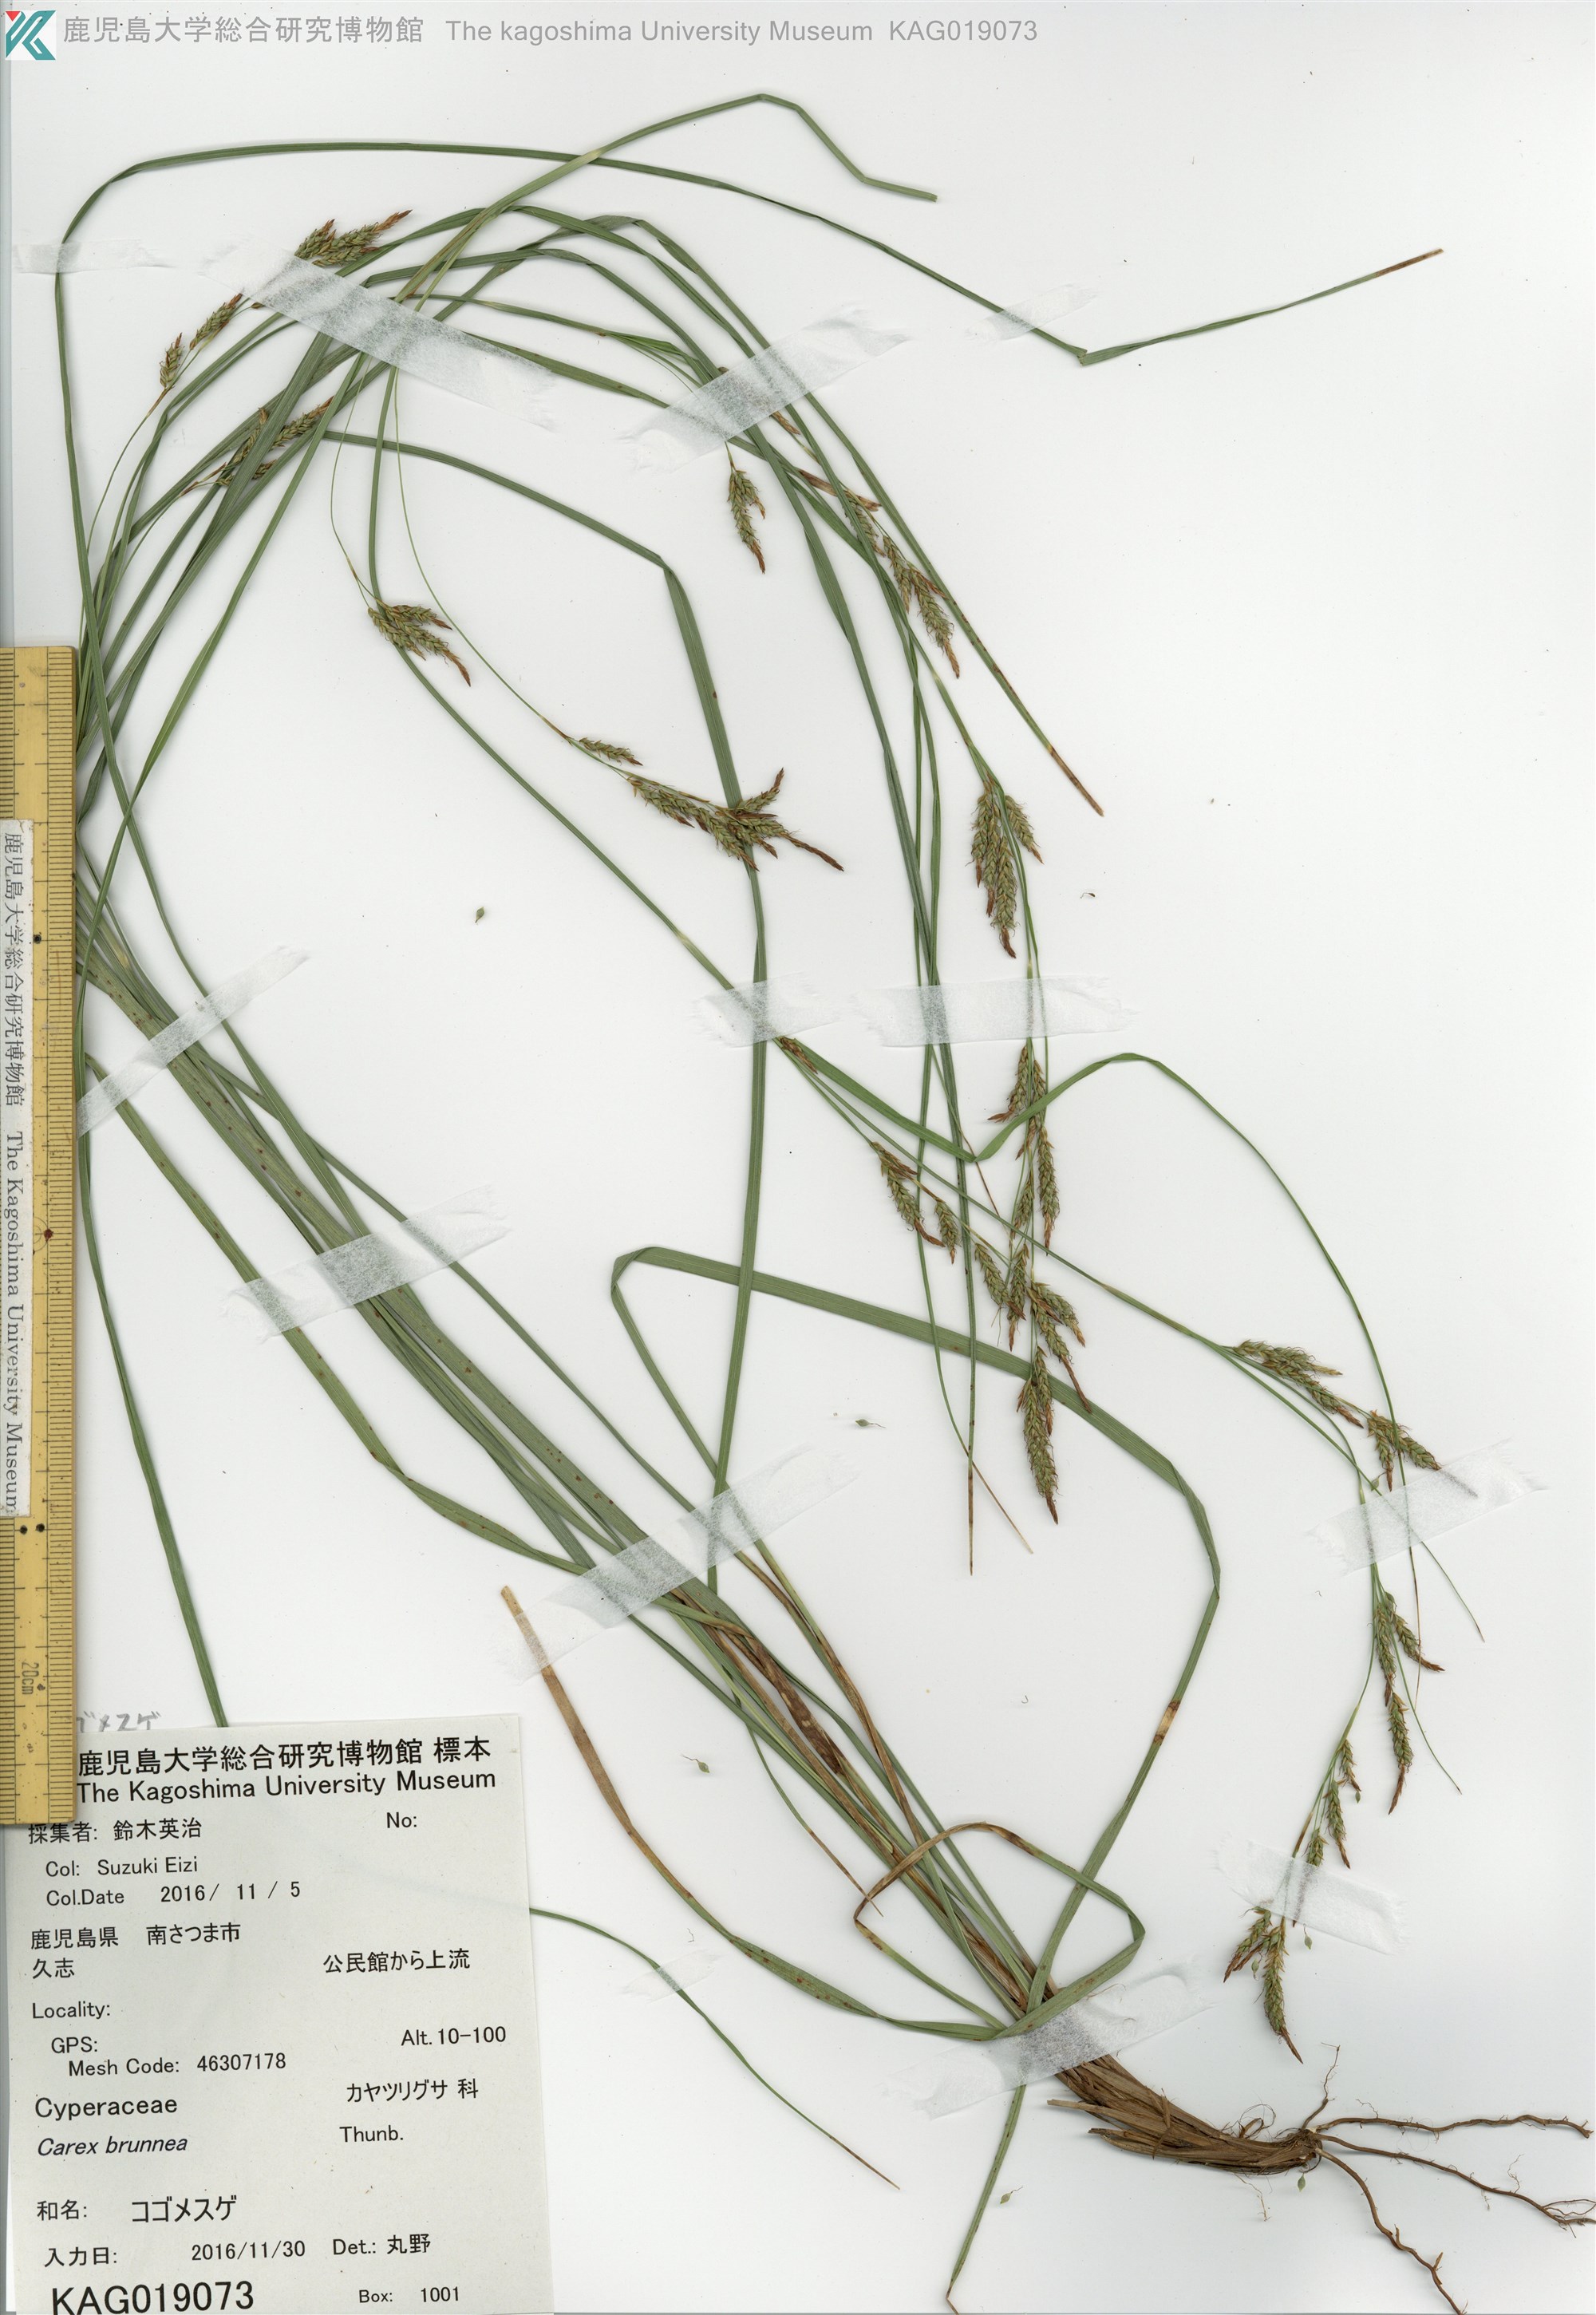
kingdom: Plantae
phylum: Tracheophyta
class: Liliopsida
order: Poales
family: Cyperaceae
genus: Carex
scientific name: Carex brunnea
